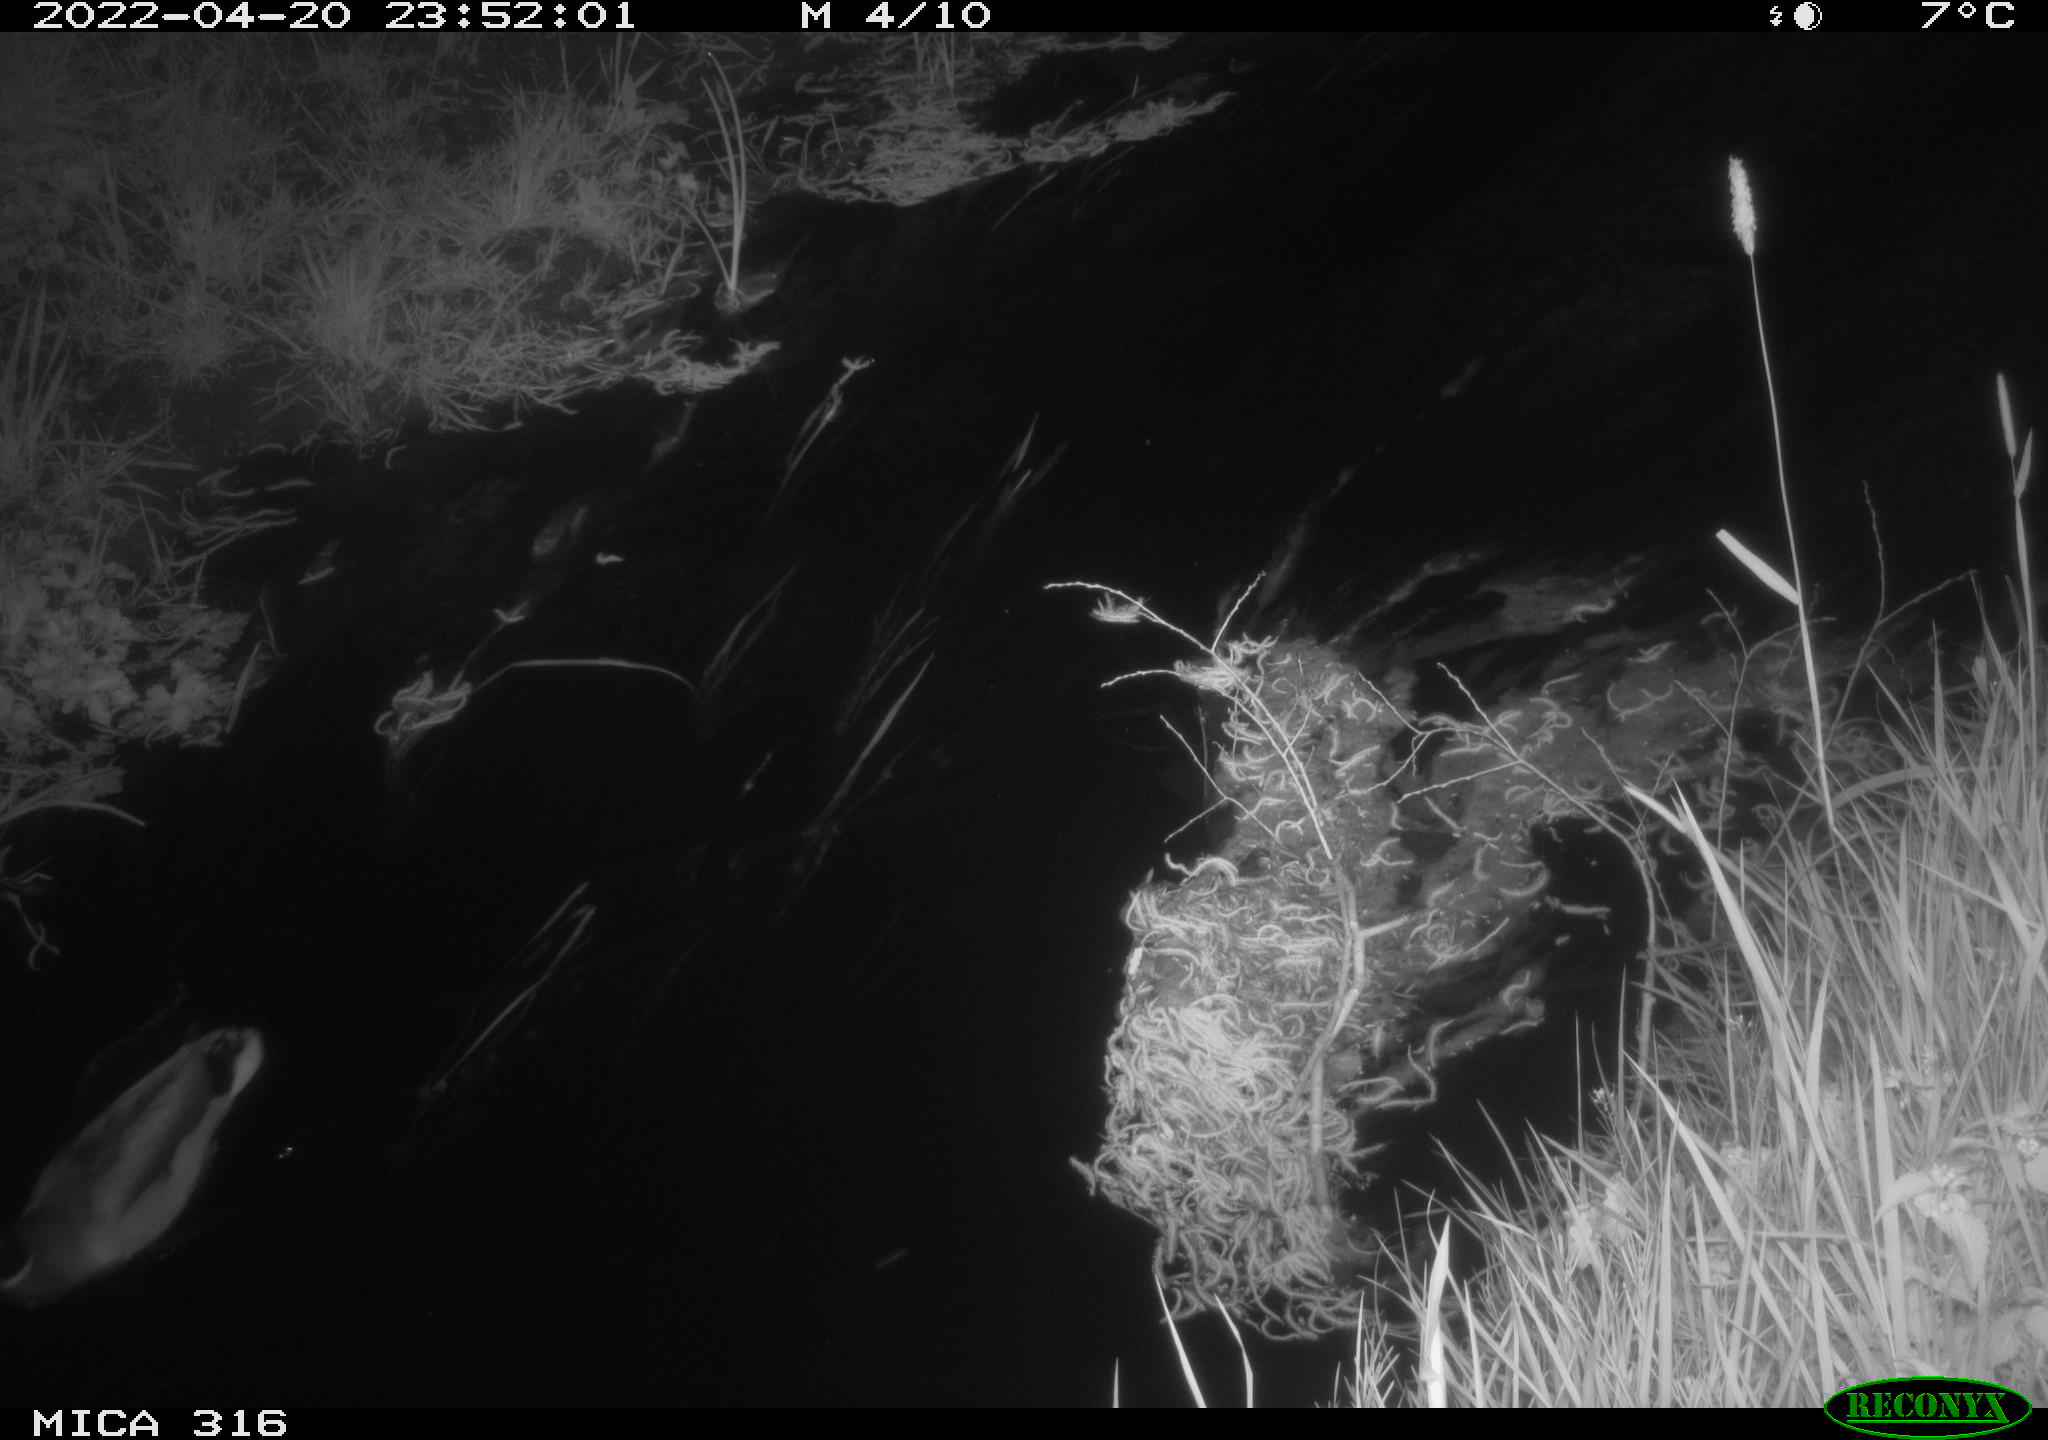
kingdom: Animalia
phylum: Chordata
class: Aves
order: Anseriformes
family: Anatidae
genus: Anas
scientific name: Anas platyrhynchos
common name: Mallard
